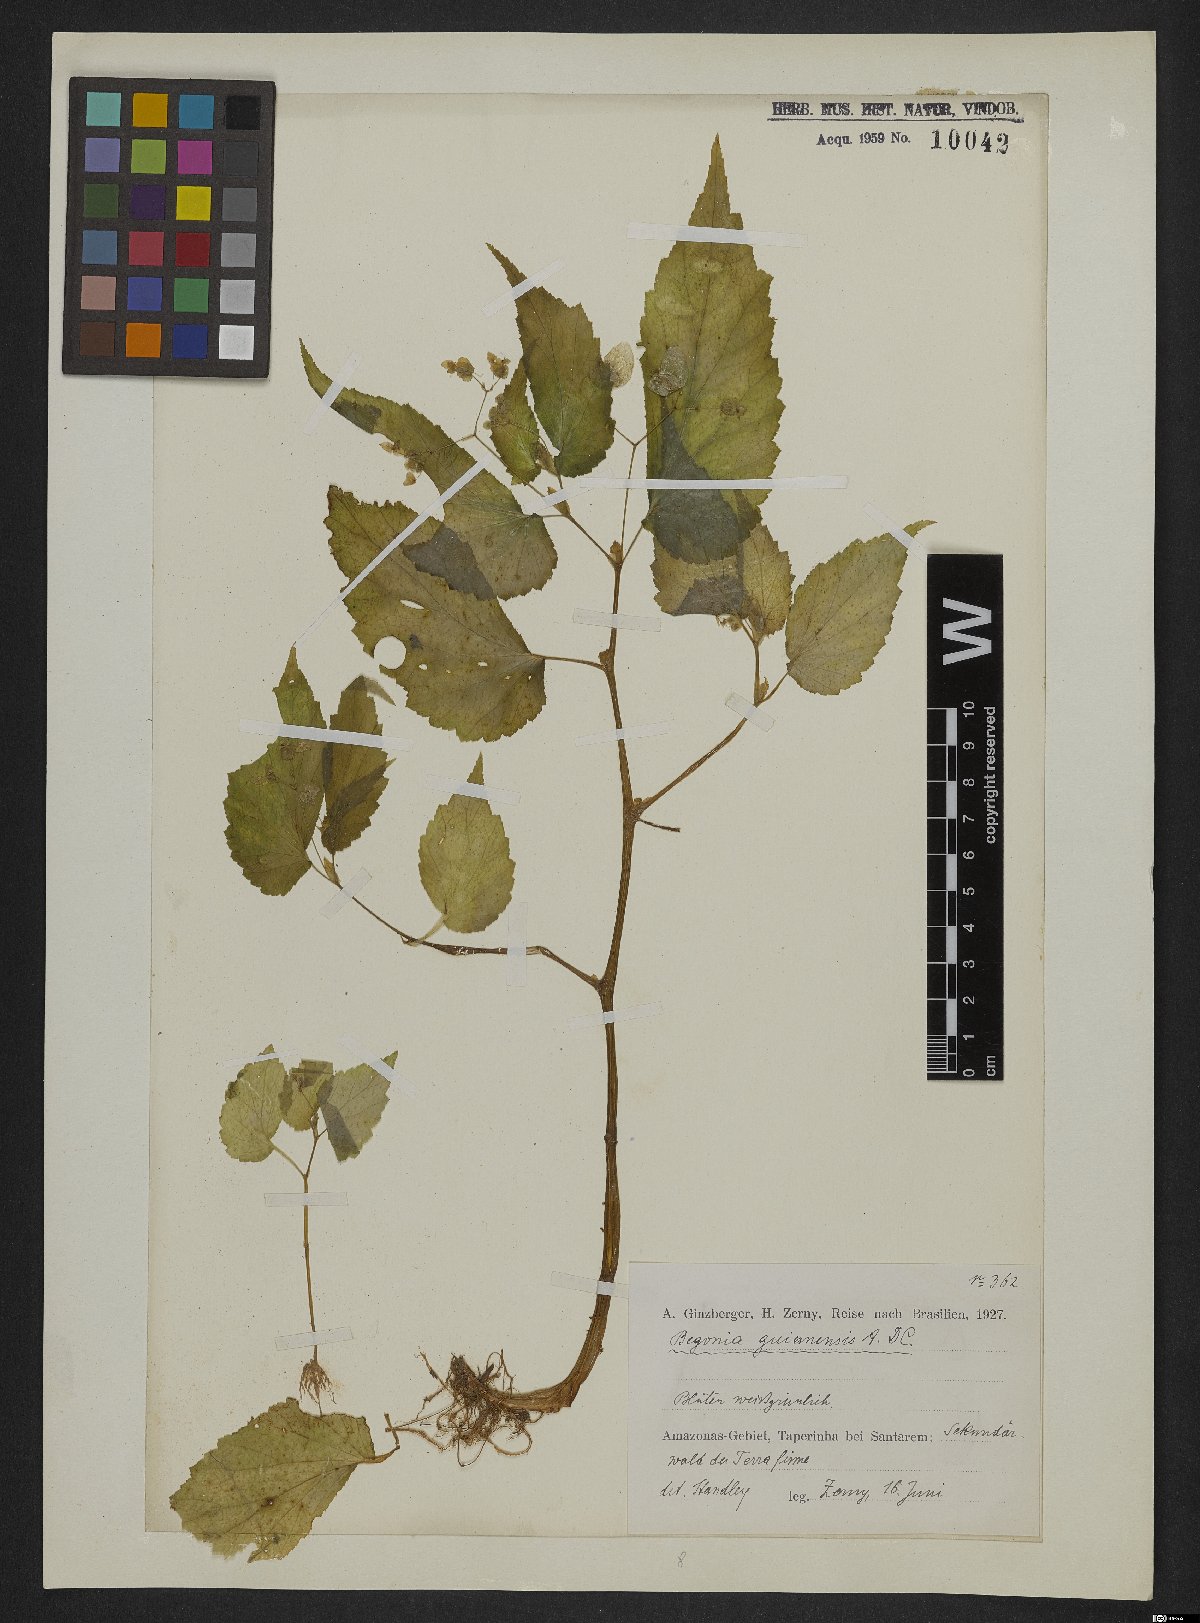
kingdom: Plantae
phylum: Tracheophyta
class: Magnoliopsida
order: Cucurbitales
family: Begoniaceae
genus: Begonia
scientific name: Begonia semiovata
